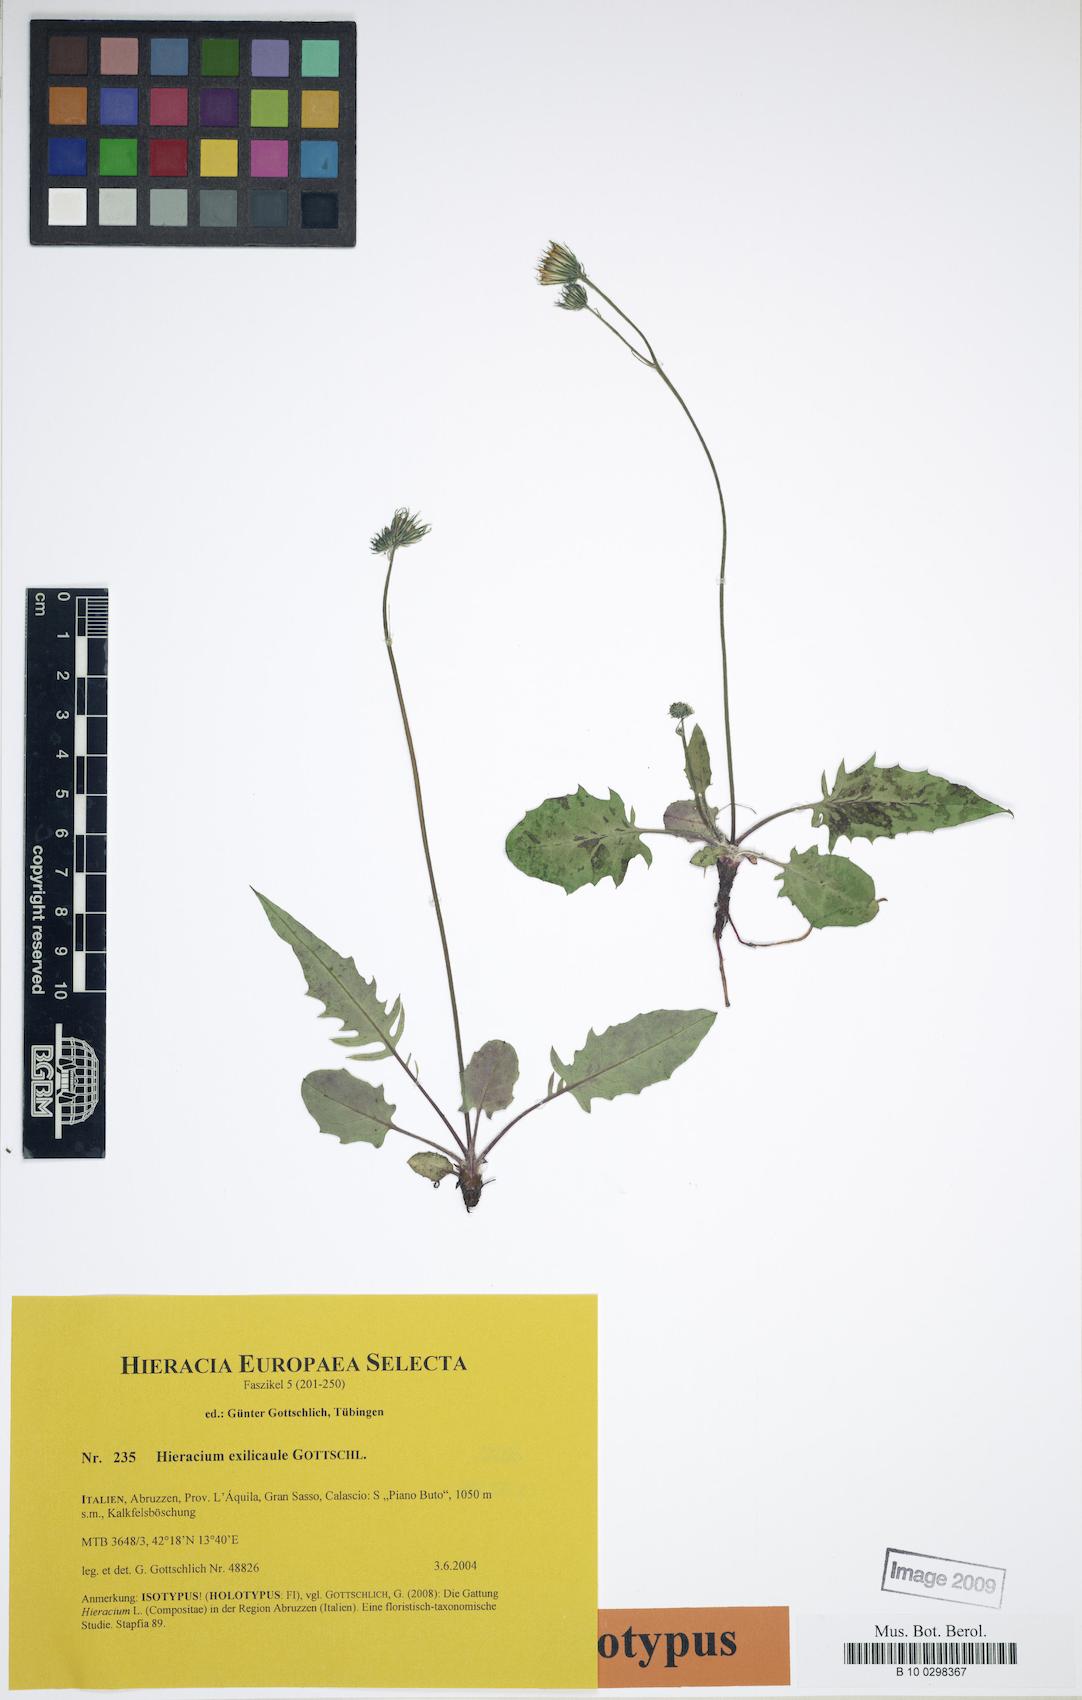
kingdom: Plantae
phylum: Tracheophyta
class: Magnoliopsida
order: Asterales
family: Asteraceae
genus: Hieracium
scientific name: Hieracium exilicaule
